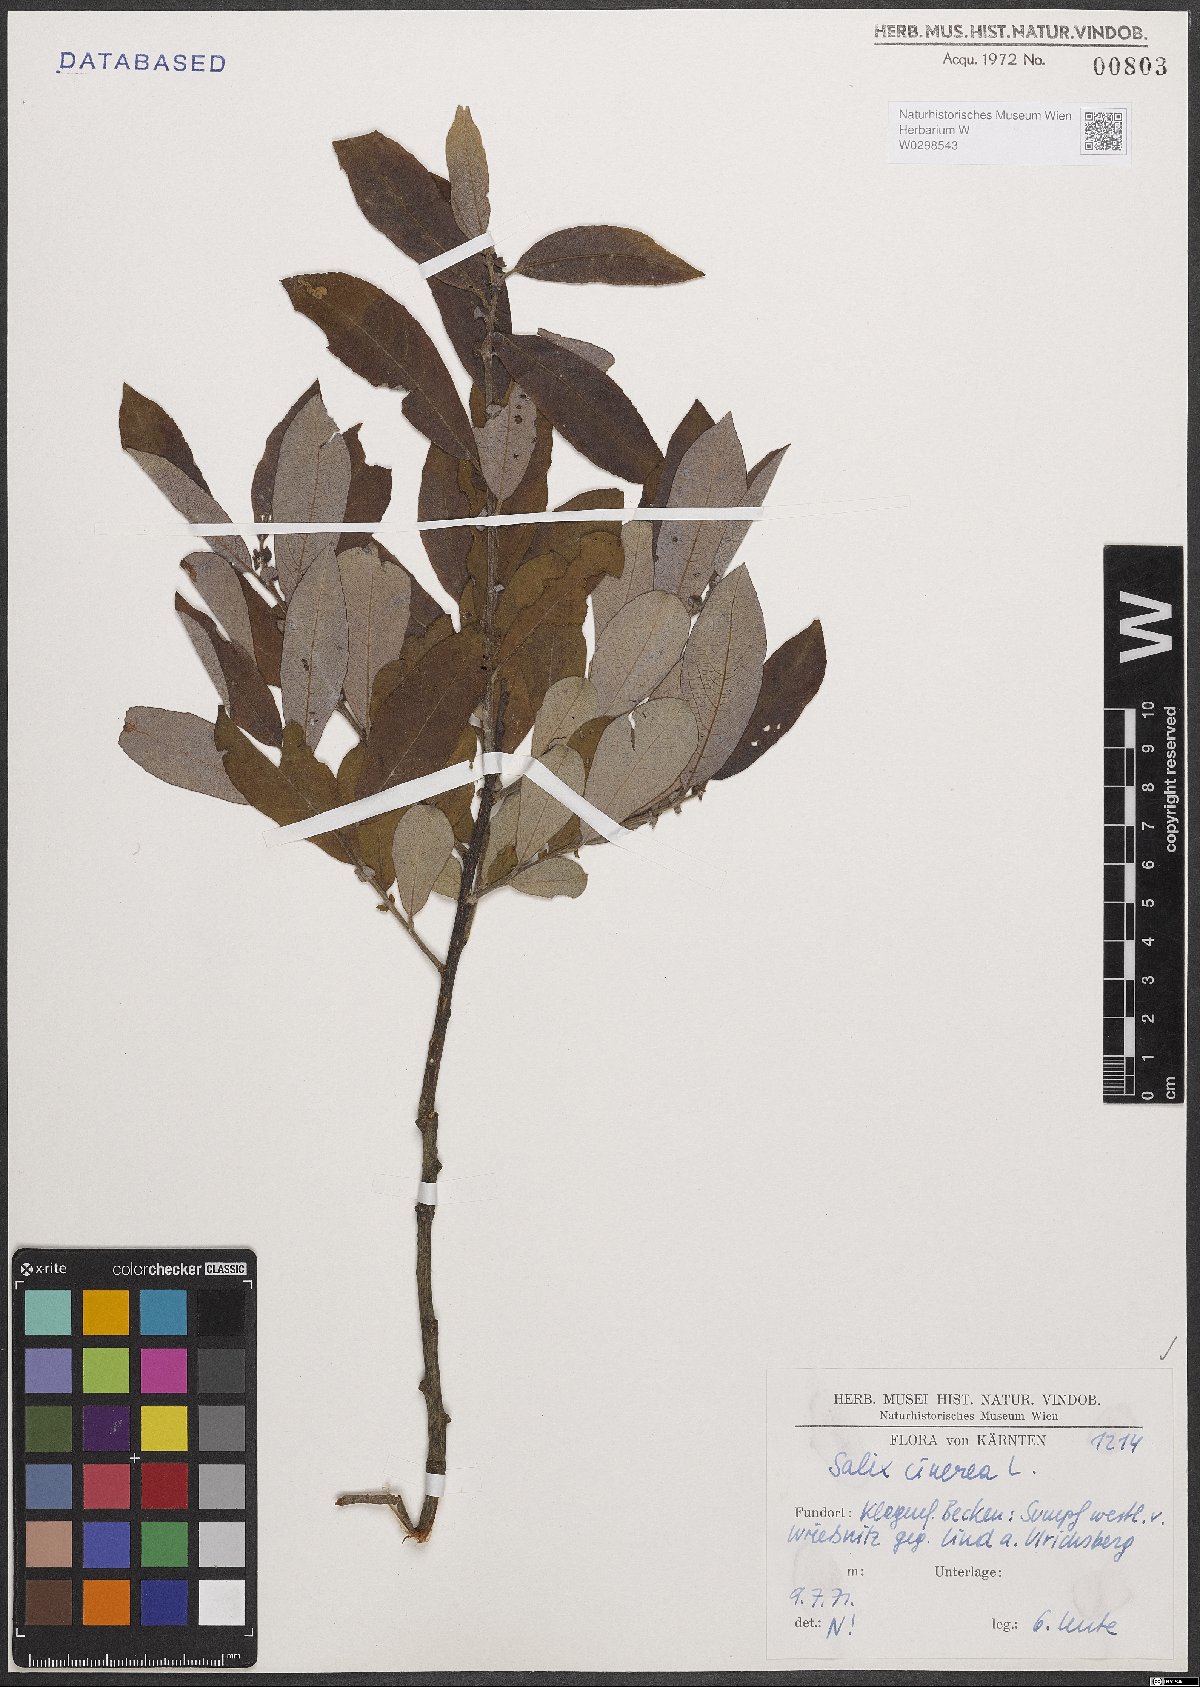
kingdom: Plantae
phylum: Tracheophyta
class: Magnoliopsida
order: Malpighiales
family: Salicaceae
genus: Salix
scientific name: Salix cinerea
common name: Common sallow
